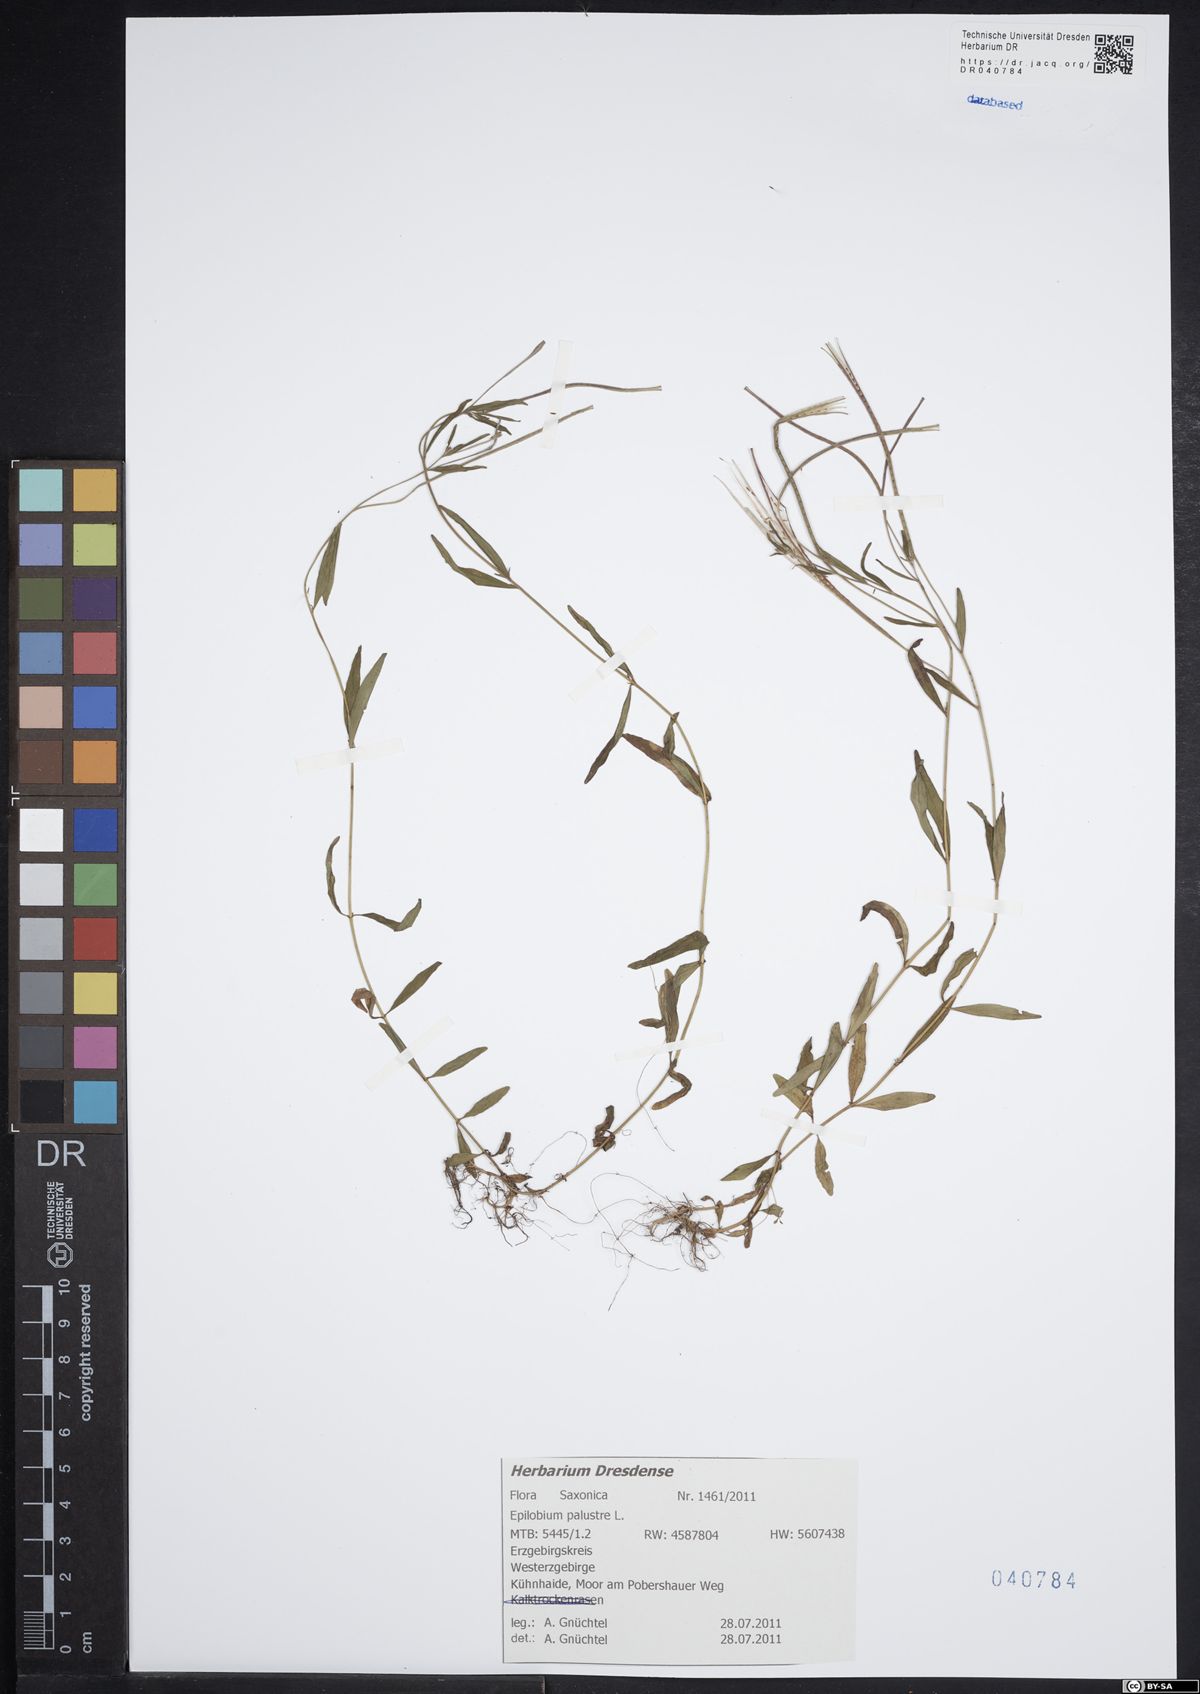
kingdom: Plantae
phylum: Tracheophyta
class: Magnoliopsida
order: Myrtales
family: Onagraceae
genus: Epilobium
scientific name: Epilobium palustre
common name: Marsh willowherb
